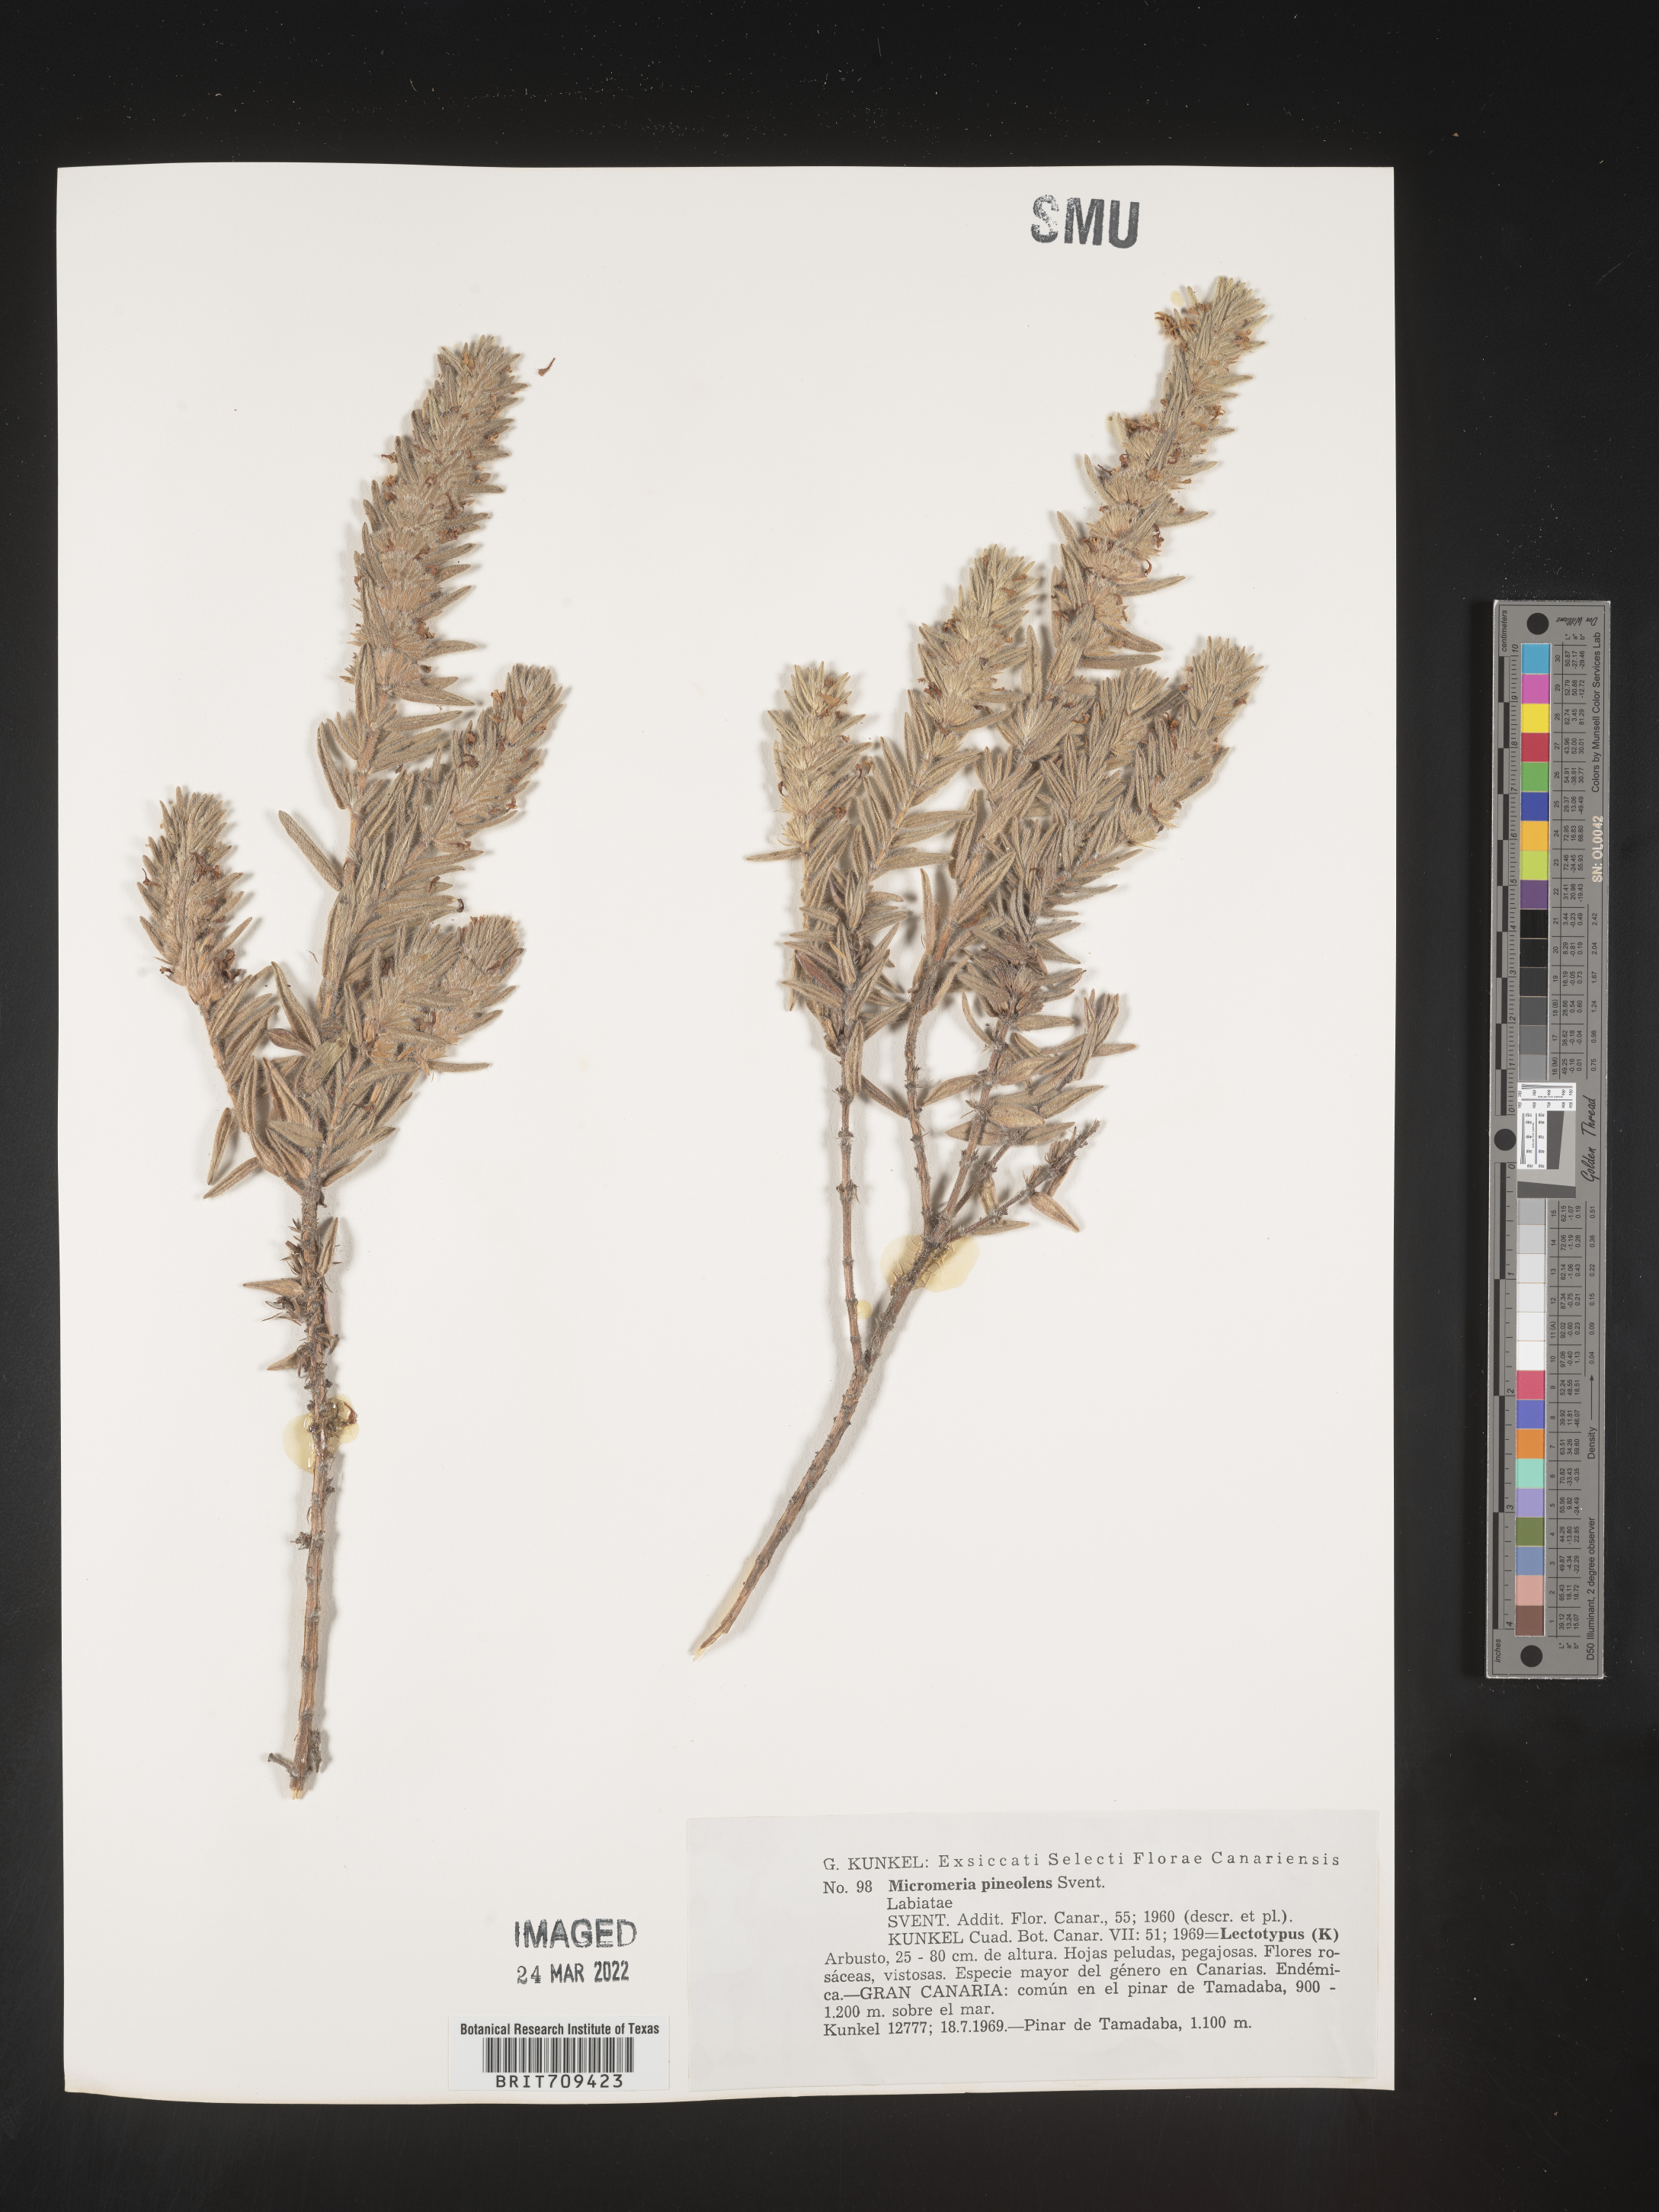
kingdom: Plantae
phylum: Tracheophyta
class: Magnoliopsida
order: Lamiales
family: Lamiaceae
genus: Micromeria
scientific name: Micromeria
